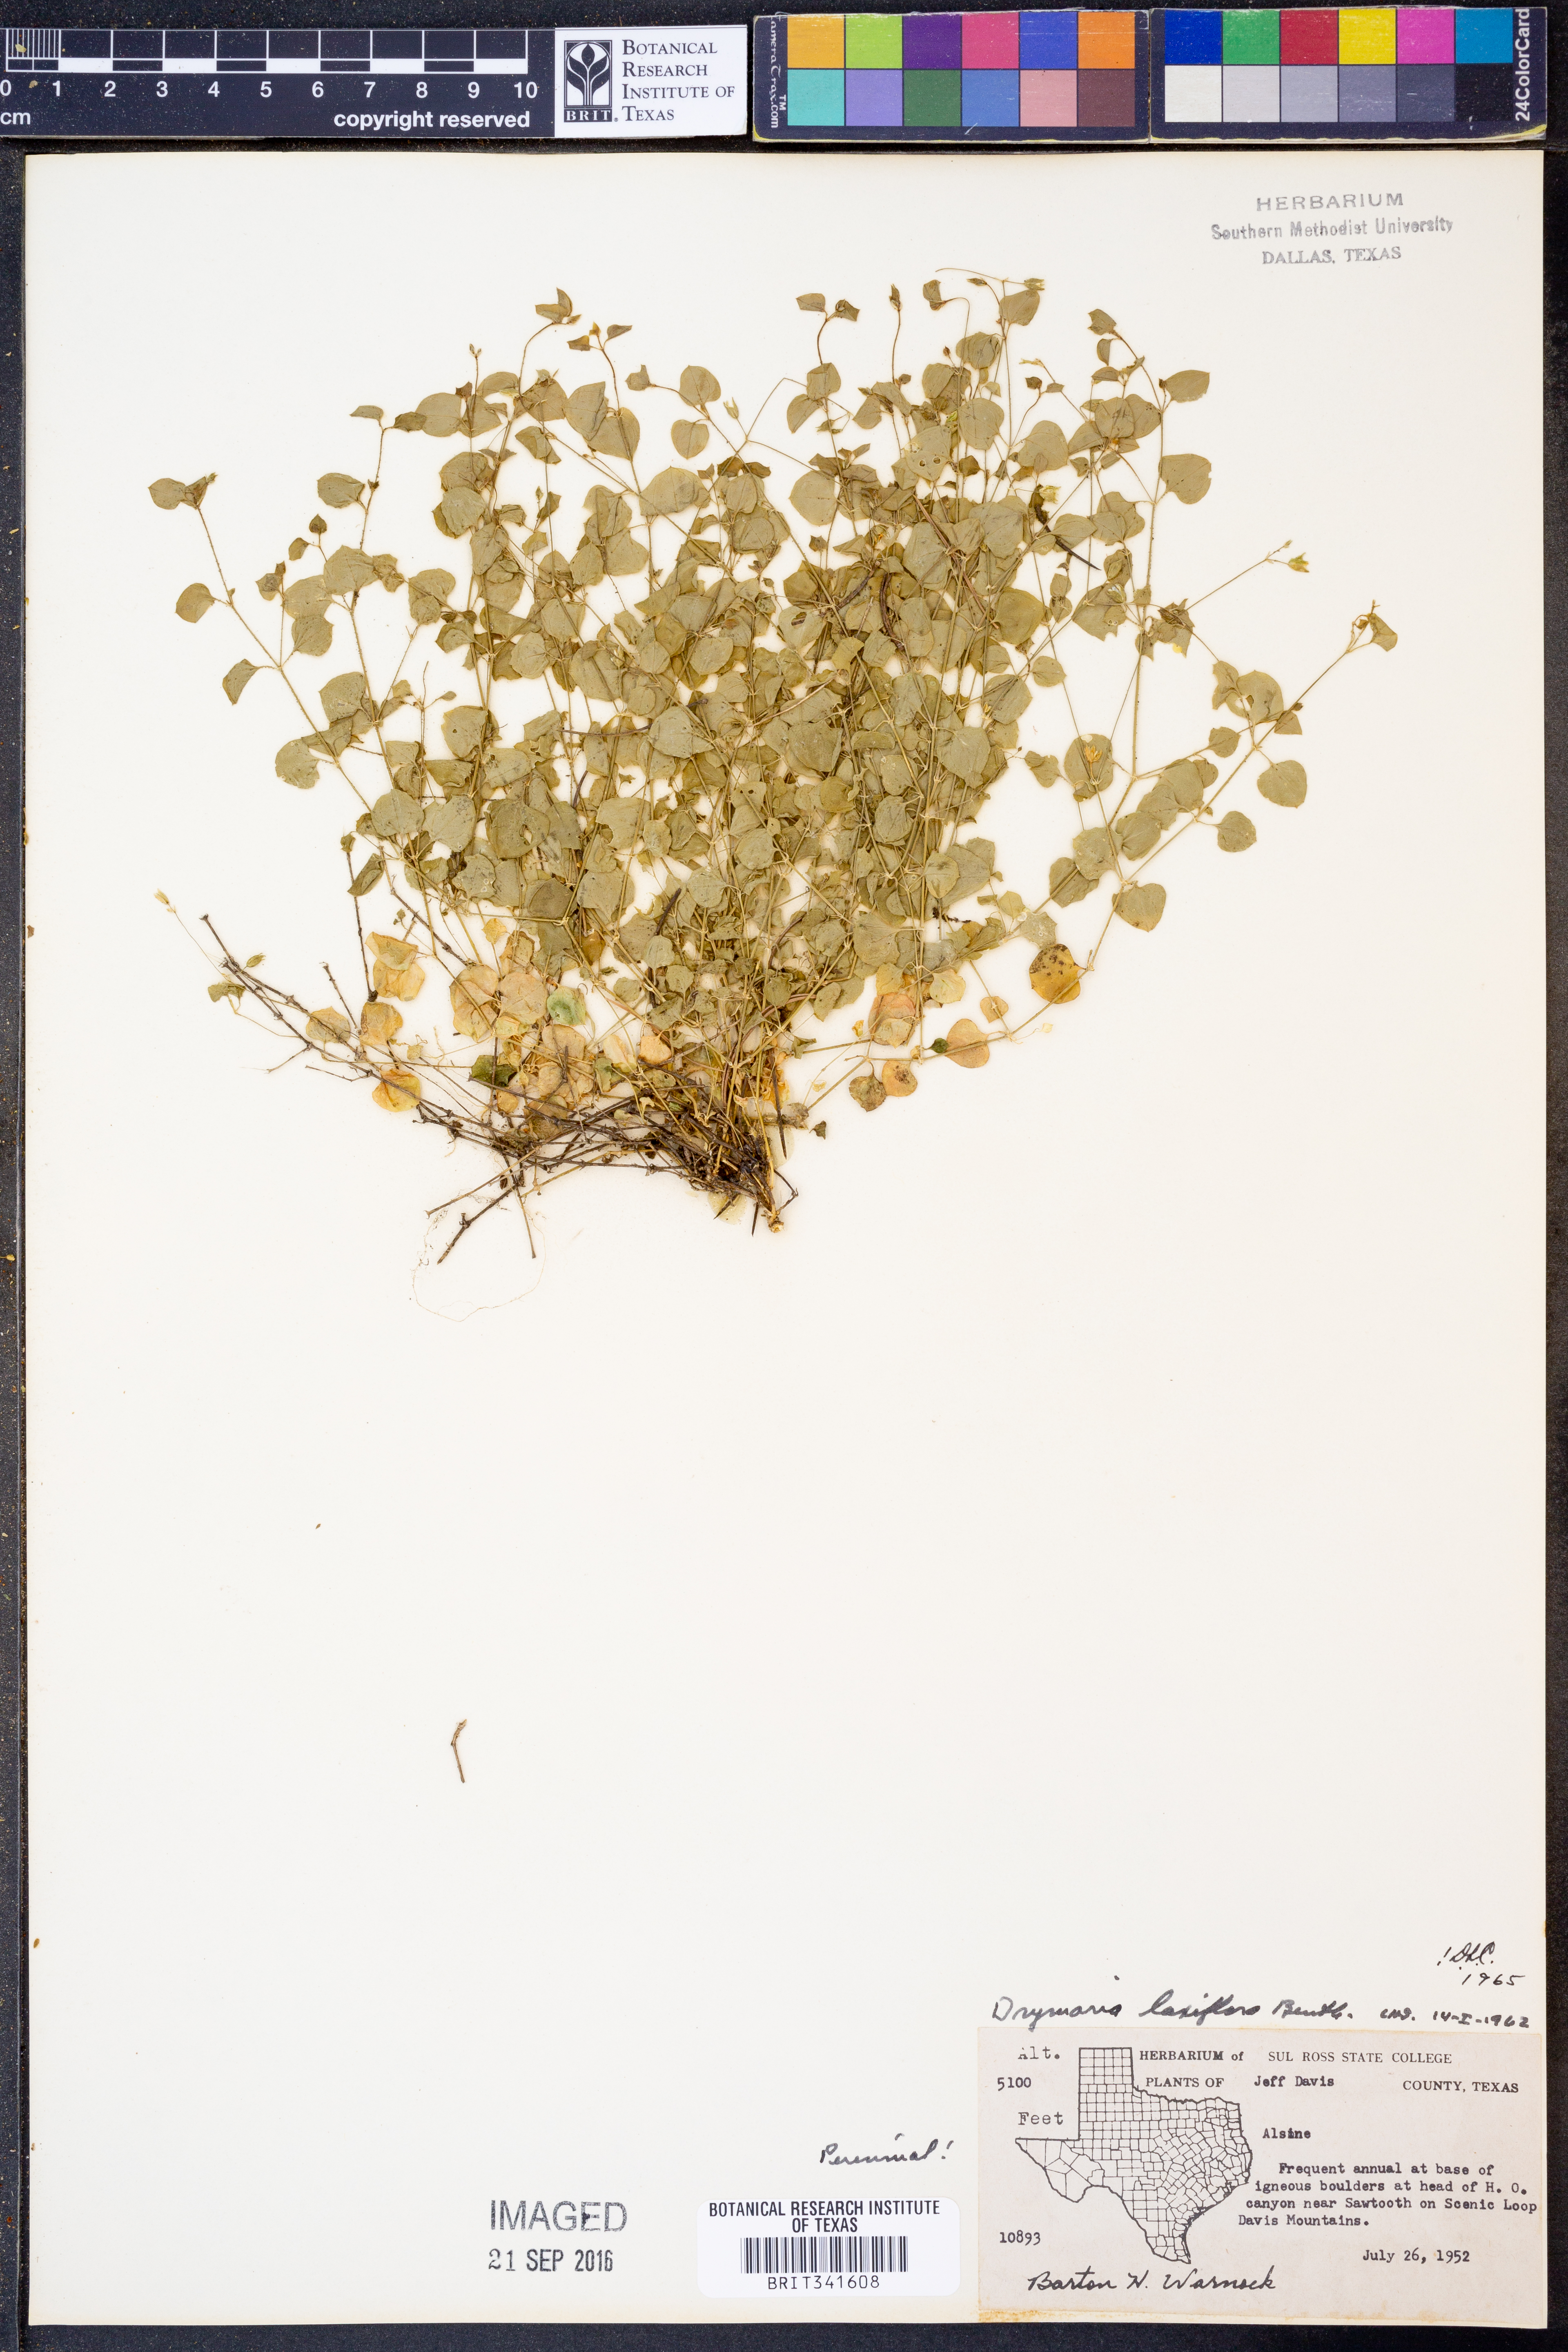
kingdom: Plantae
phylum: Tracheophyta
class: Magnoliopsida
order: Caryophyllales
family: Caryophyllaceae
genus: Drymaria
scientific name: Drymaria laxiflora
